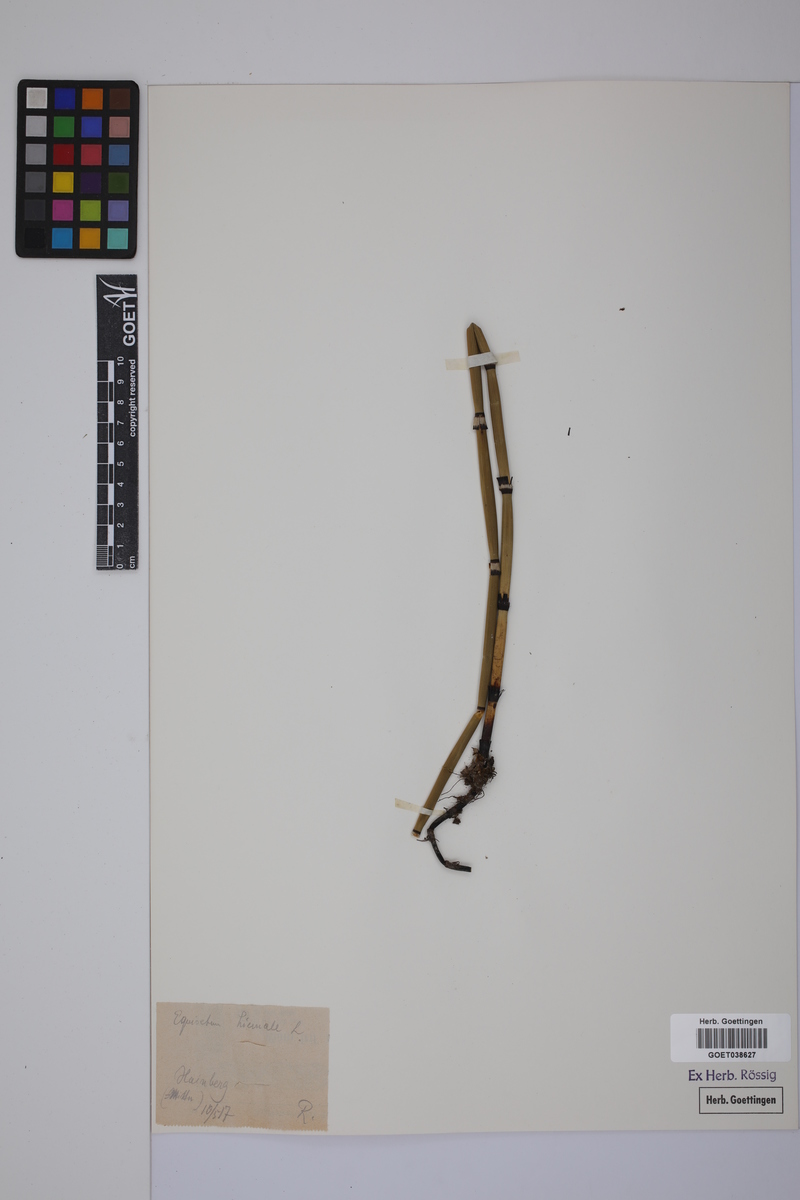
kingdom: Plantae
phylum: Tracheophyta
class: Polypodiopsida
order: Equisetales
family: Equisetaceae
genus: Equisetum
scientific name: Equisetum hyemale
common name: Rough horsetail
